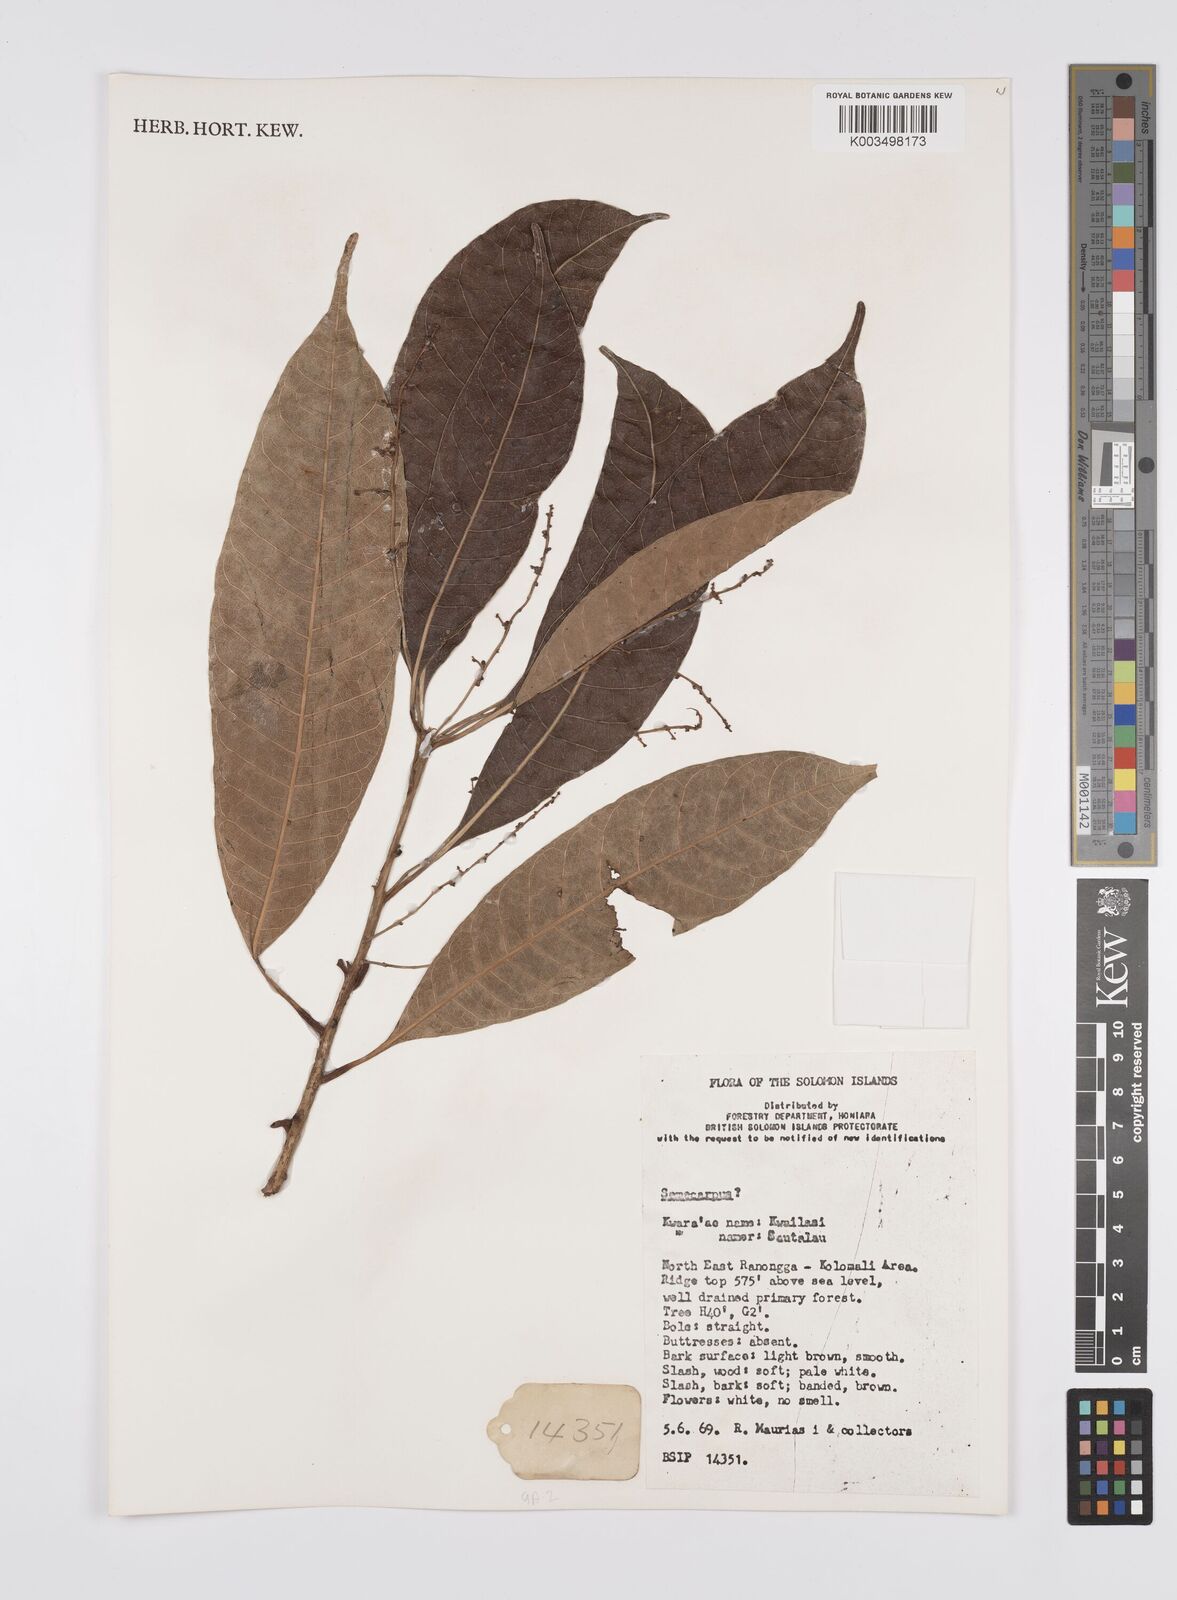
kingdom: Plantae
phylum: Tracheophyta
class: Magnoliopsida
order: Sapindales
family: Anacardiaceae
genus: Semecarpus
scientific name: Semecarpus
